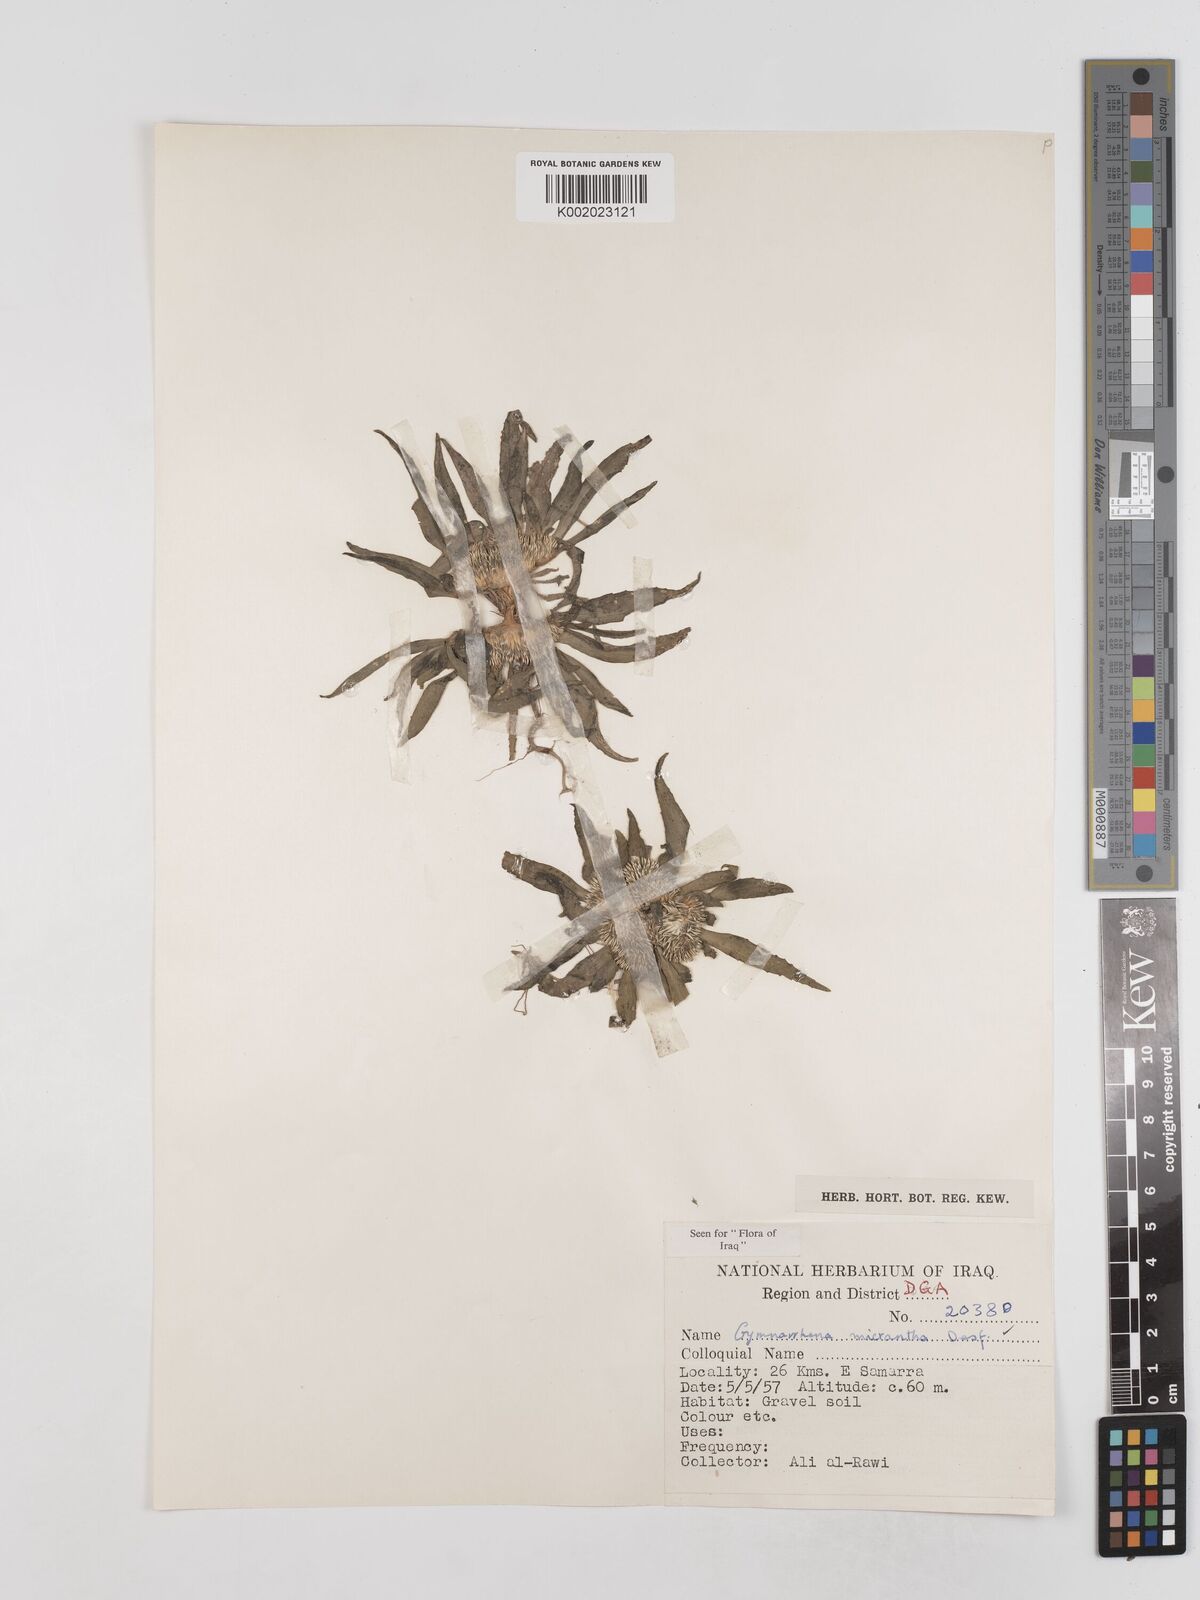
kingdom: Plantae
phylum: Tracheophyta
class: Magnoliopsida
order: Asterales
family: Asteraceae
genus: Gymnarrhena
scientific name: Gymnarrhena micrantha
